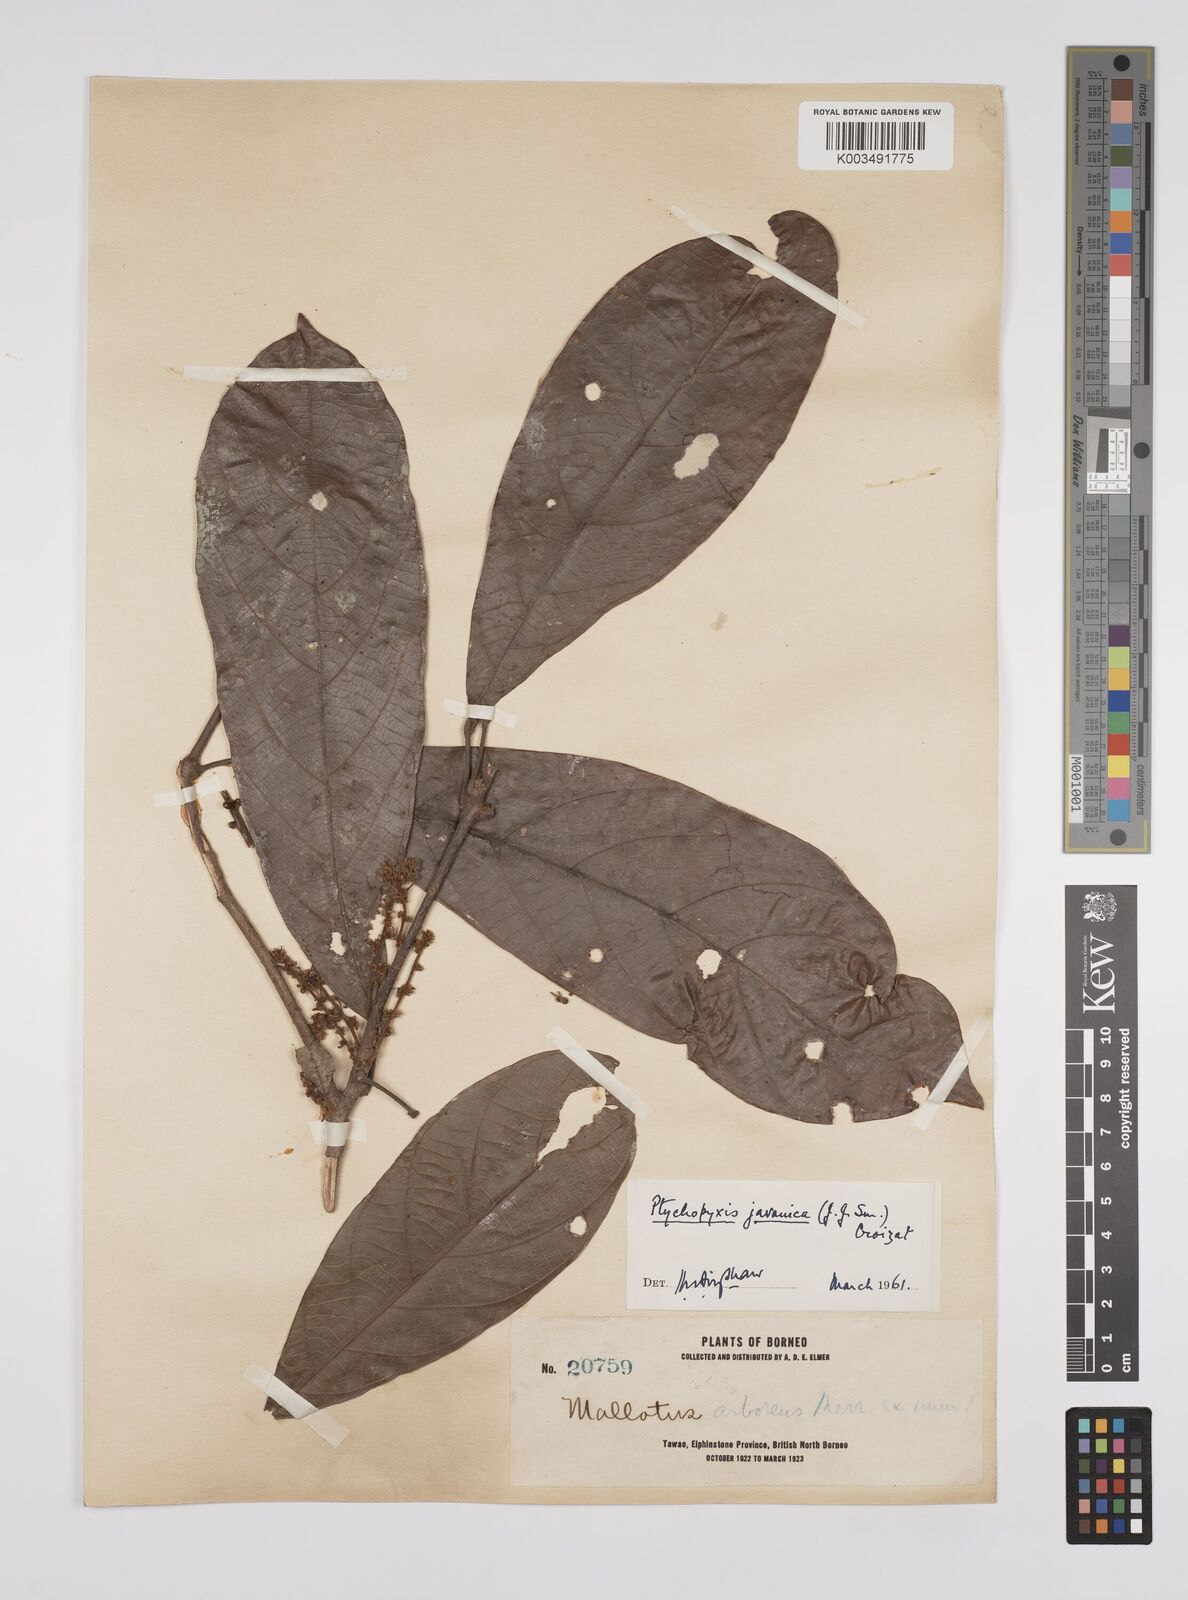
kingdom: Plantae
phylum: Tracheophyta
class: Magnoliopsida
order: Malpighiales
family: Euphorbiaceae
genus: Ptychopyxis
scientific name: Ptychopyxis javanica
